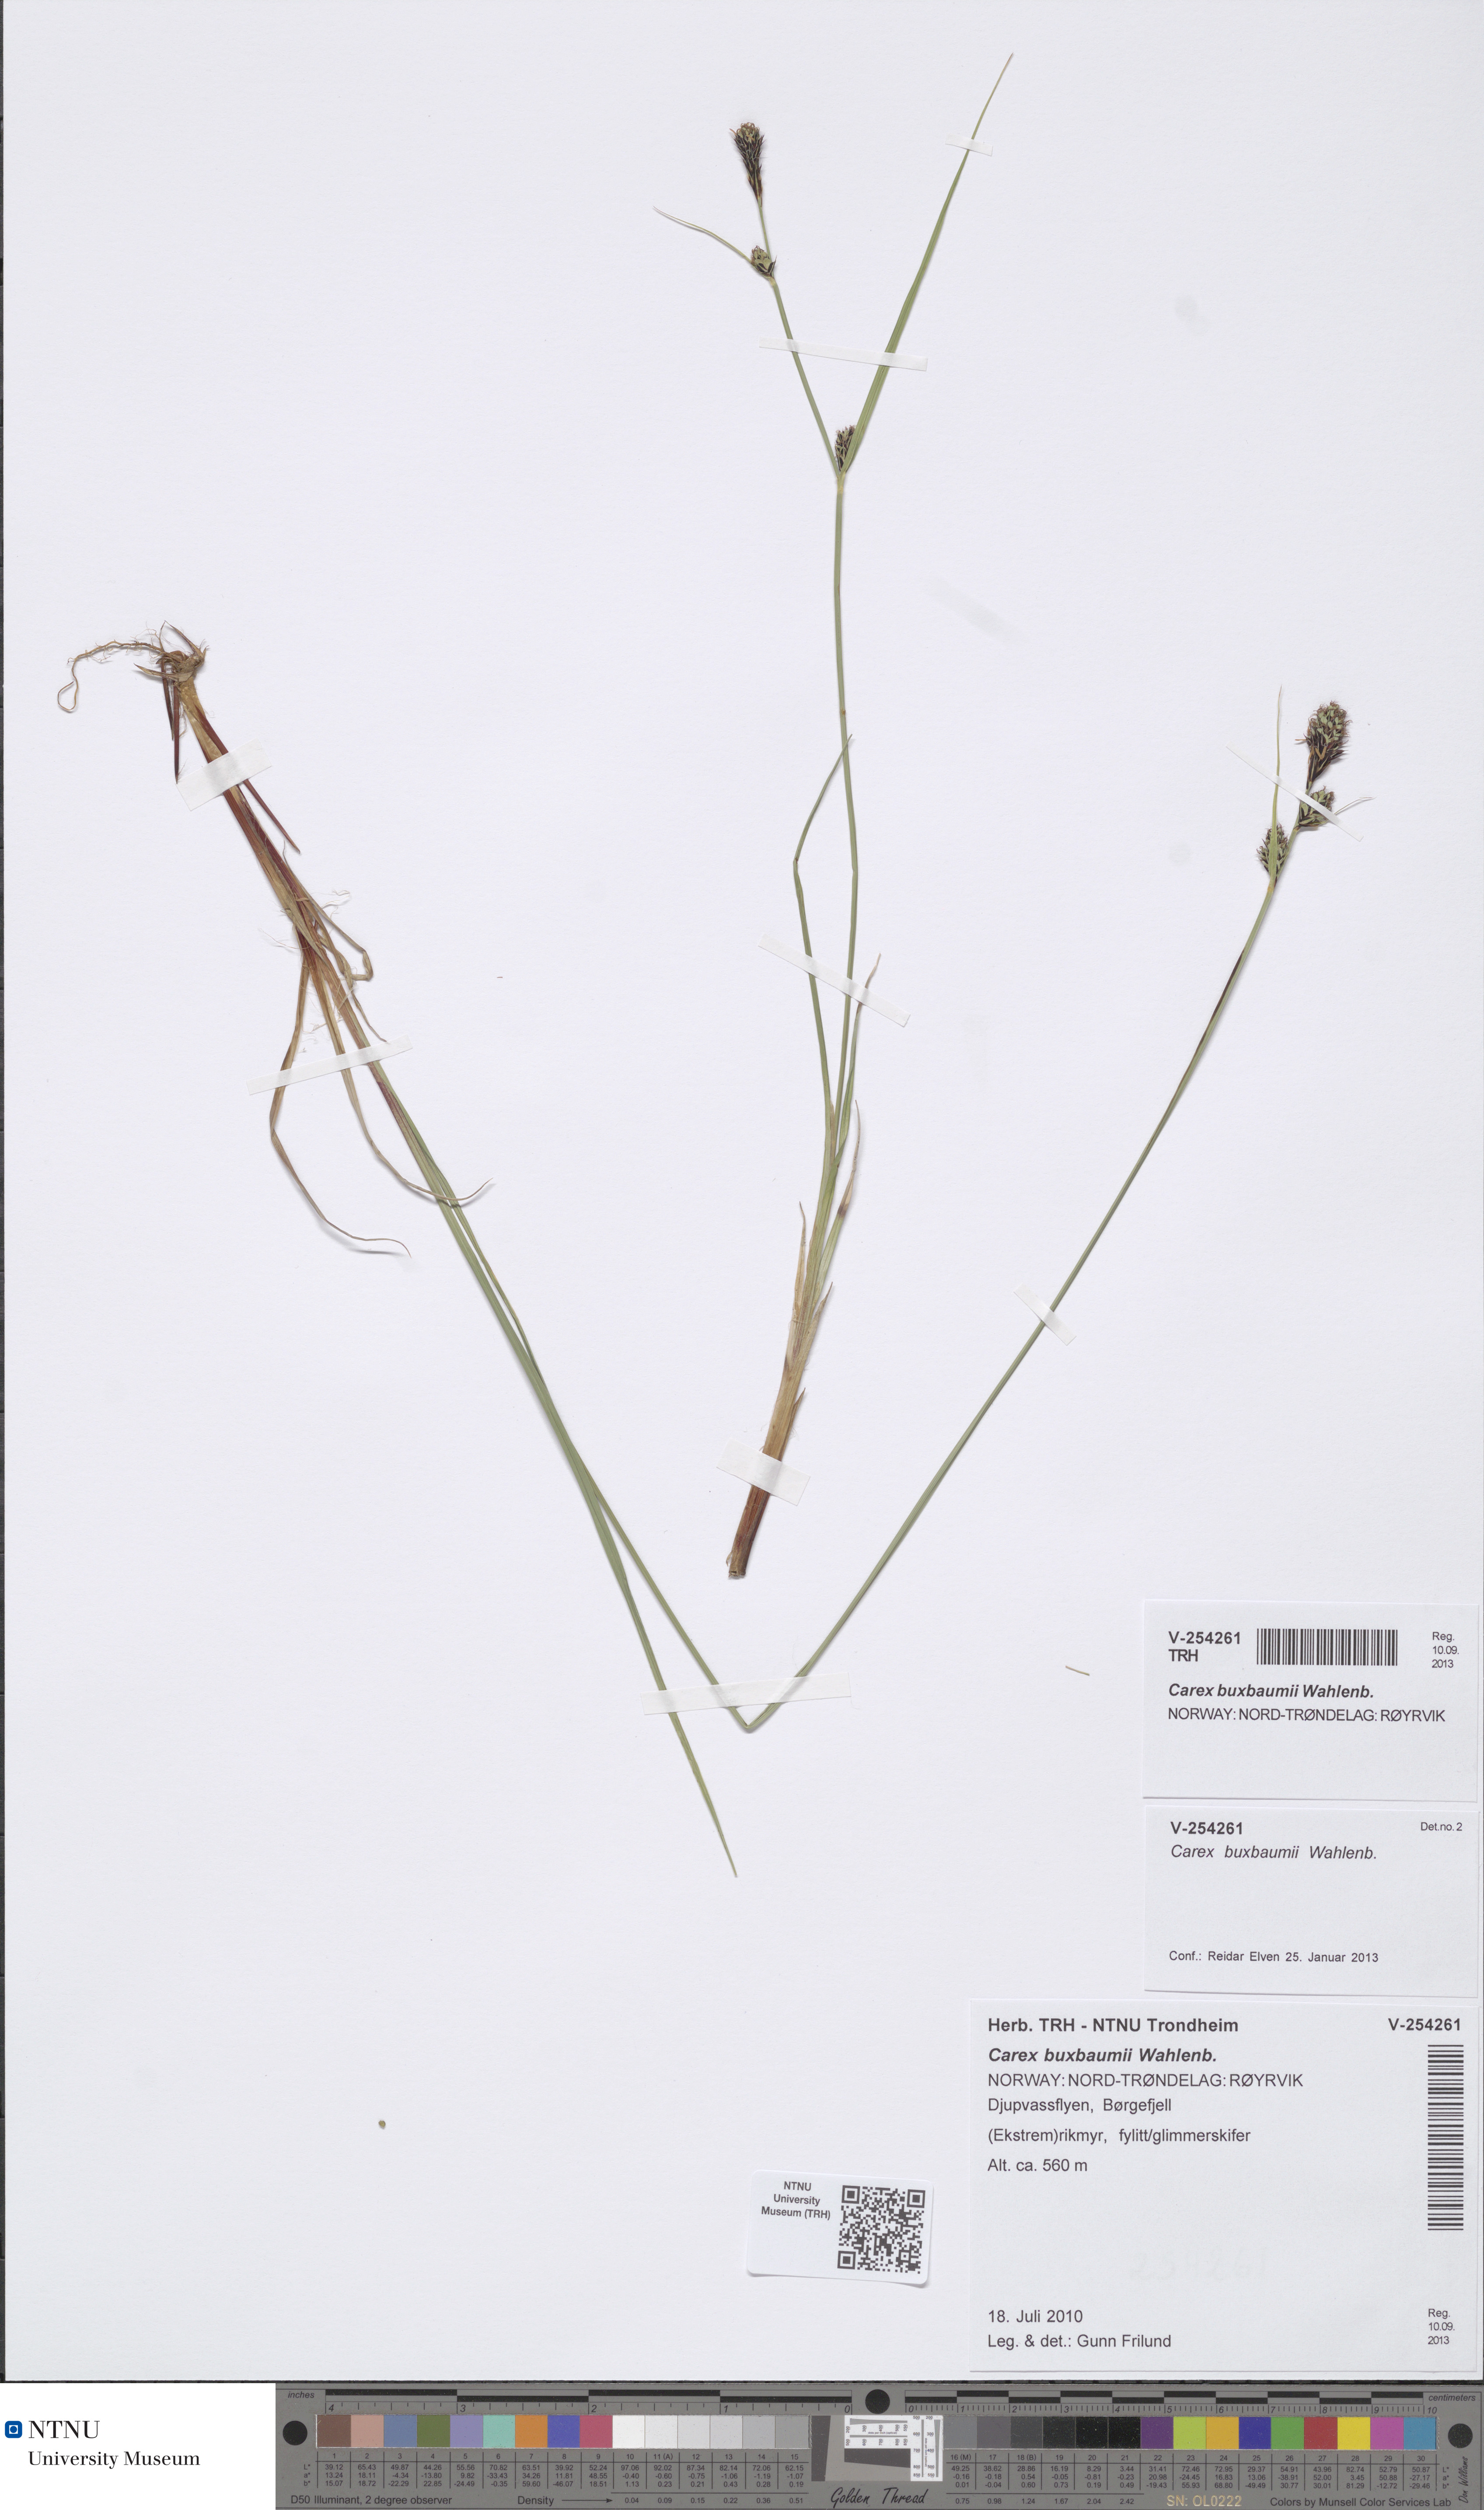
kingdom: Plantae
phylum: Tracheophyta
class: Liliopsida
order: Poales
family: Cyperaceae
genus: Carex
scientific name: Carex buxbaumii
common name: Club sedge
